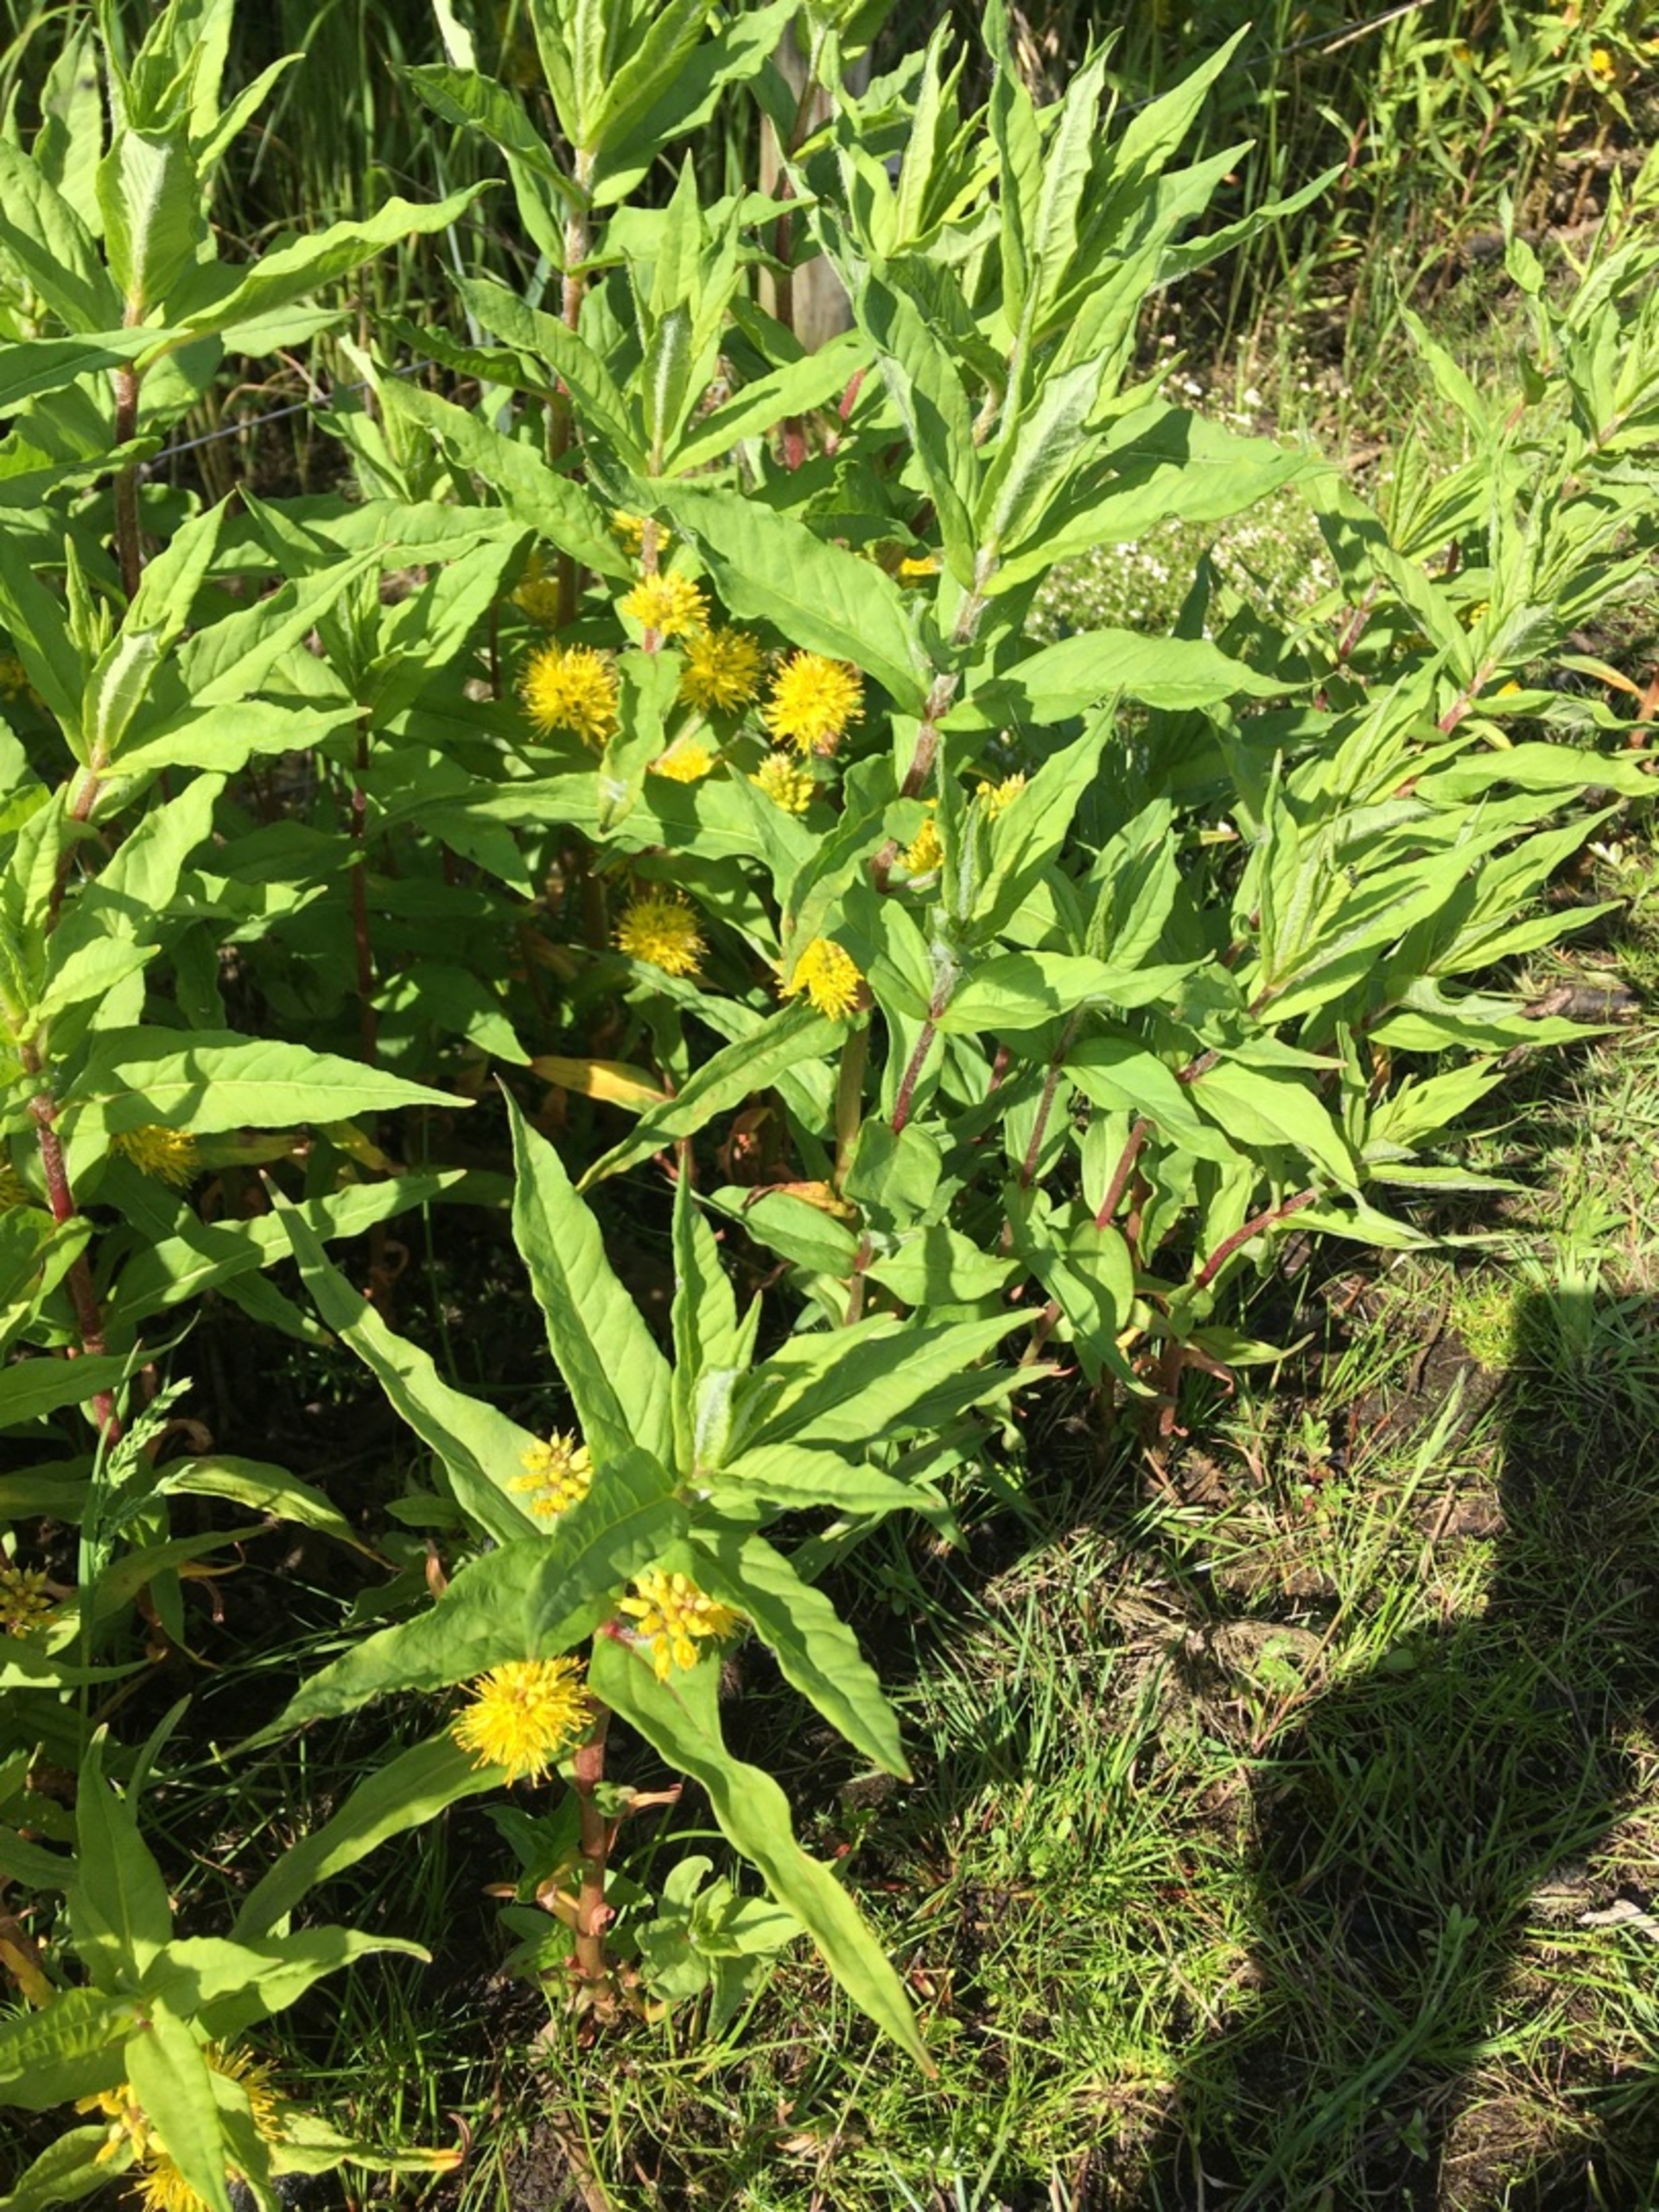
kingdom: Plantae
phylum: Tracheophyta
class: Magnoliopsida
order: Ericales
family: Primulaceae
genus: Lysimachia
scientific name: Lysimachia thyrsiflora
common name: Dusk-fredløs
